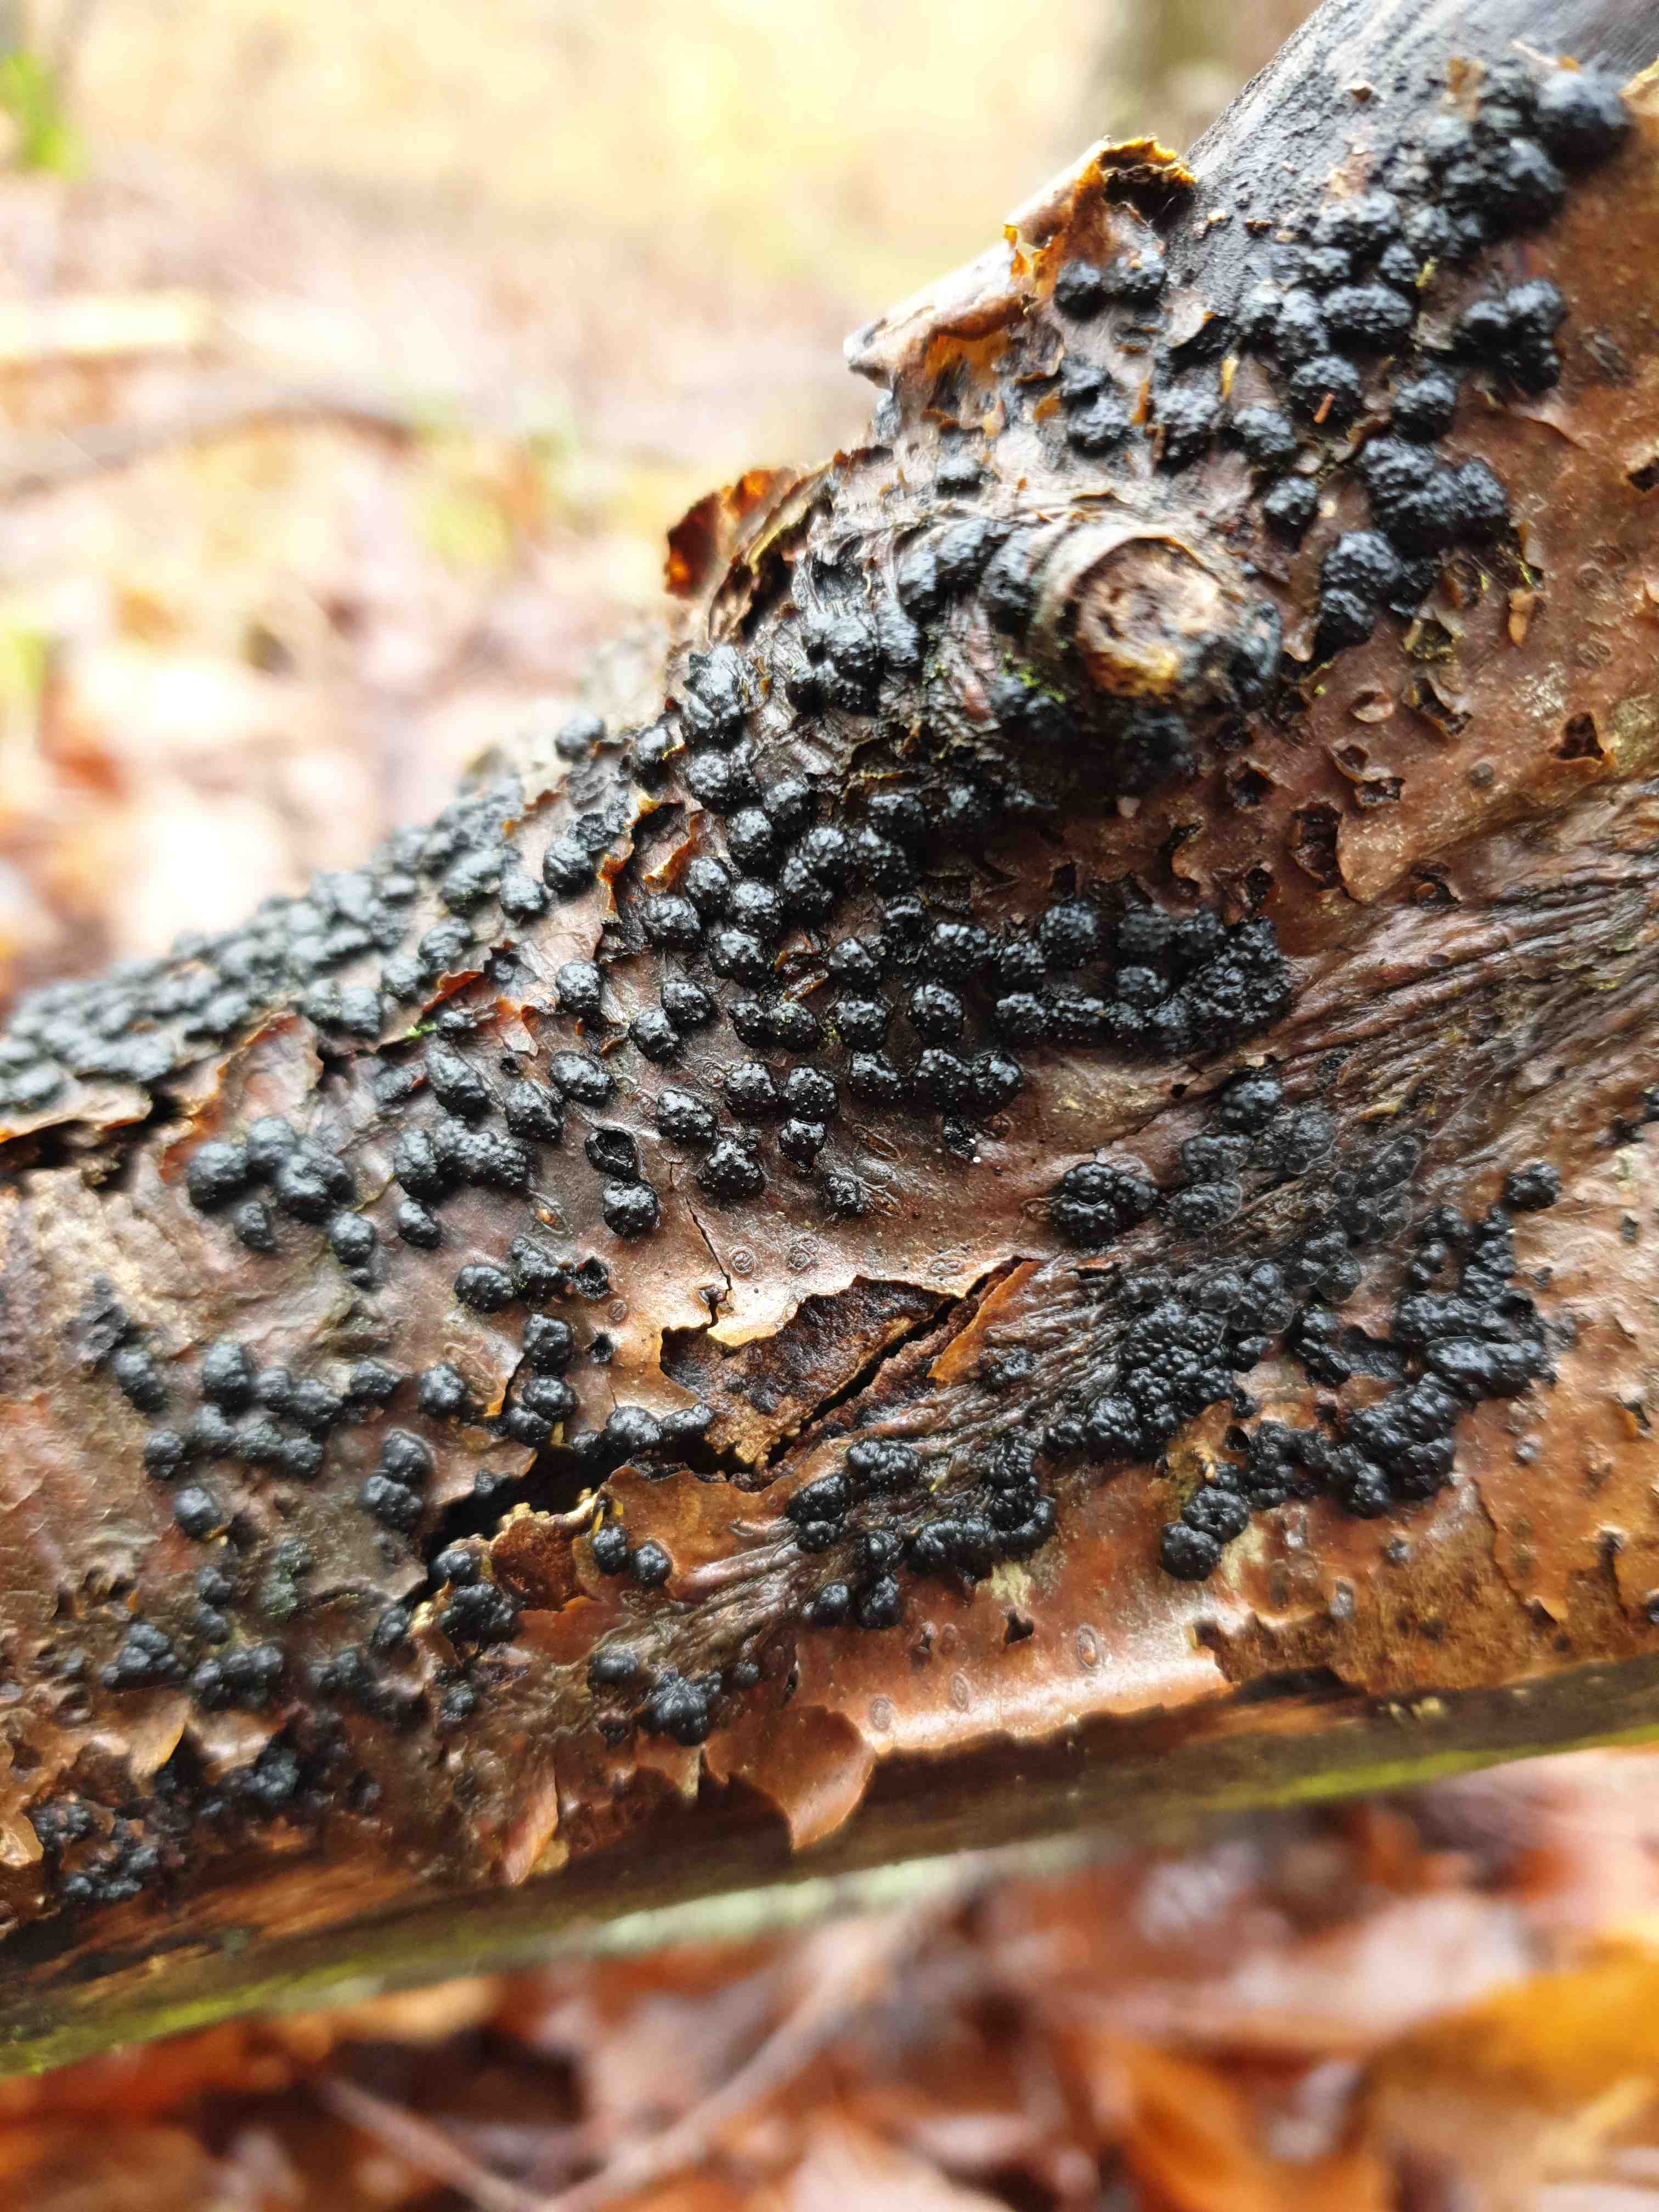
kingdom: Fungi
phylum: Ascomycota
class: Sordariomycetes
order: Xylariales
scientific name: Xylariales
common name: stødsvampordenen
